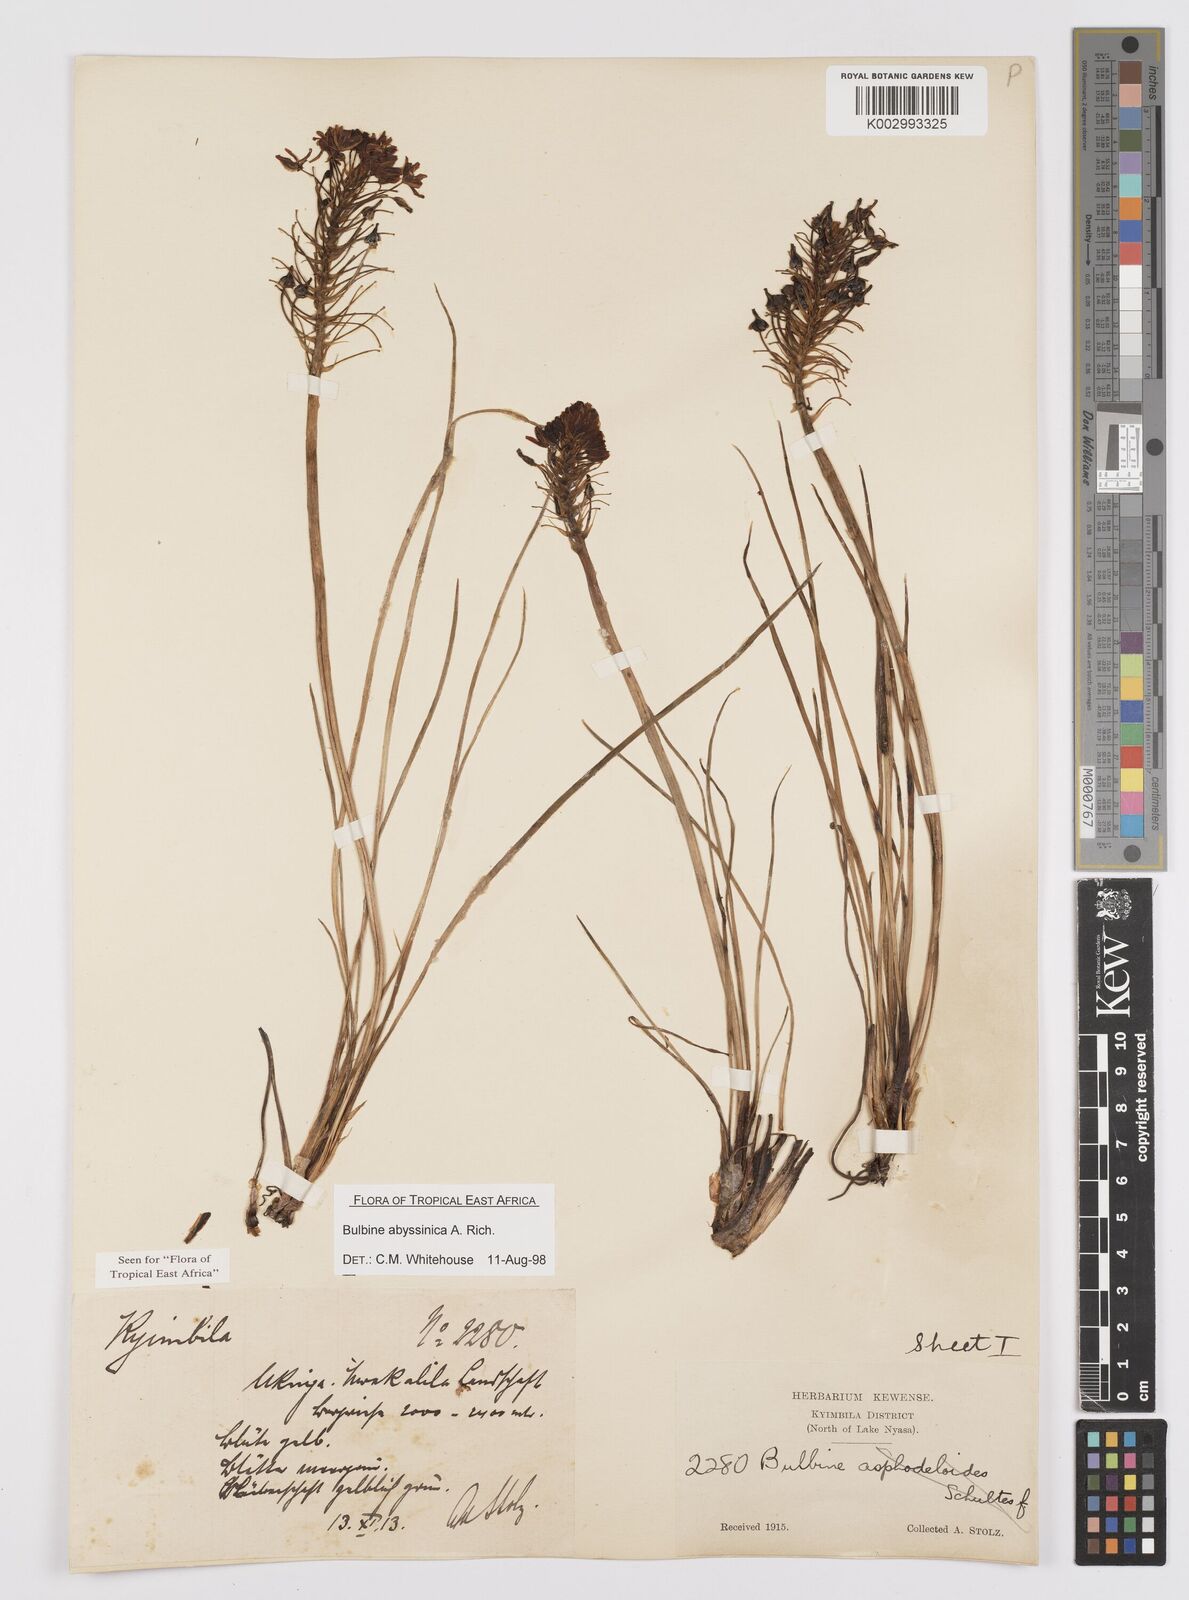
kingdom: Plantae
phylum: Tracheophyta
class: Liliopsida
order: Asparagales
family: Asphodelaceae
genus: Bulbine
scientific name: Bulbine abyssinica
